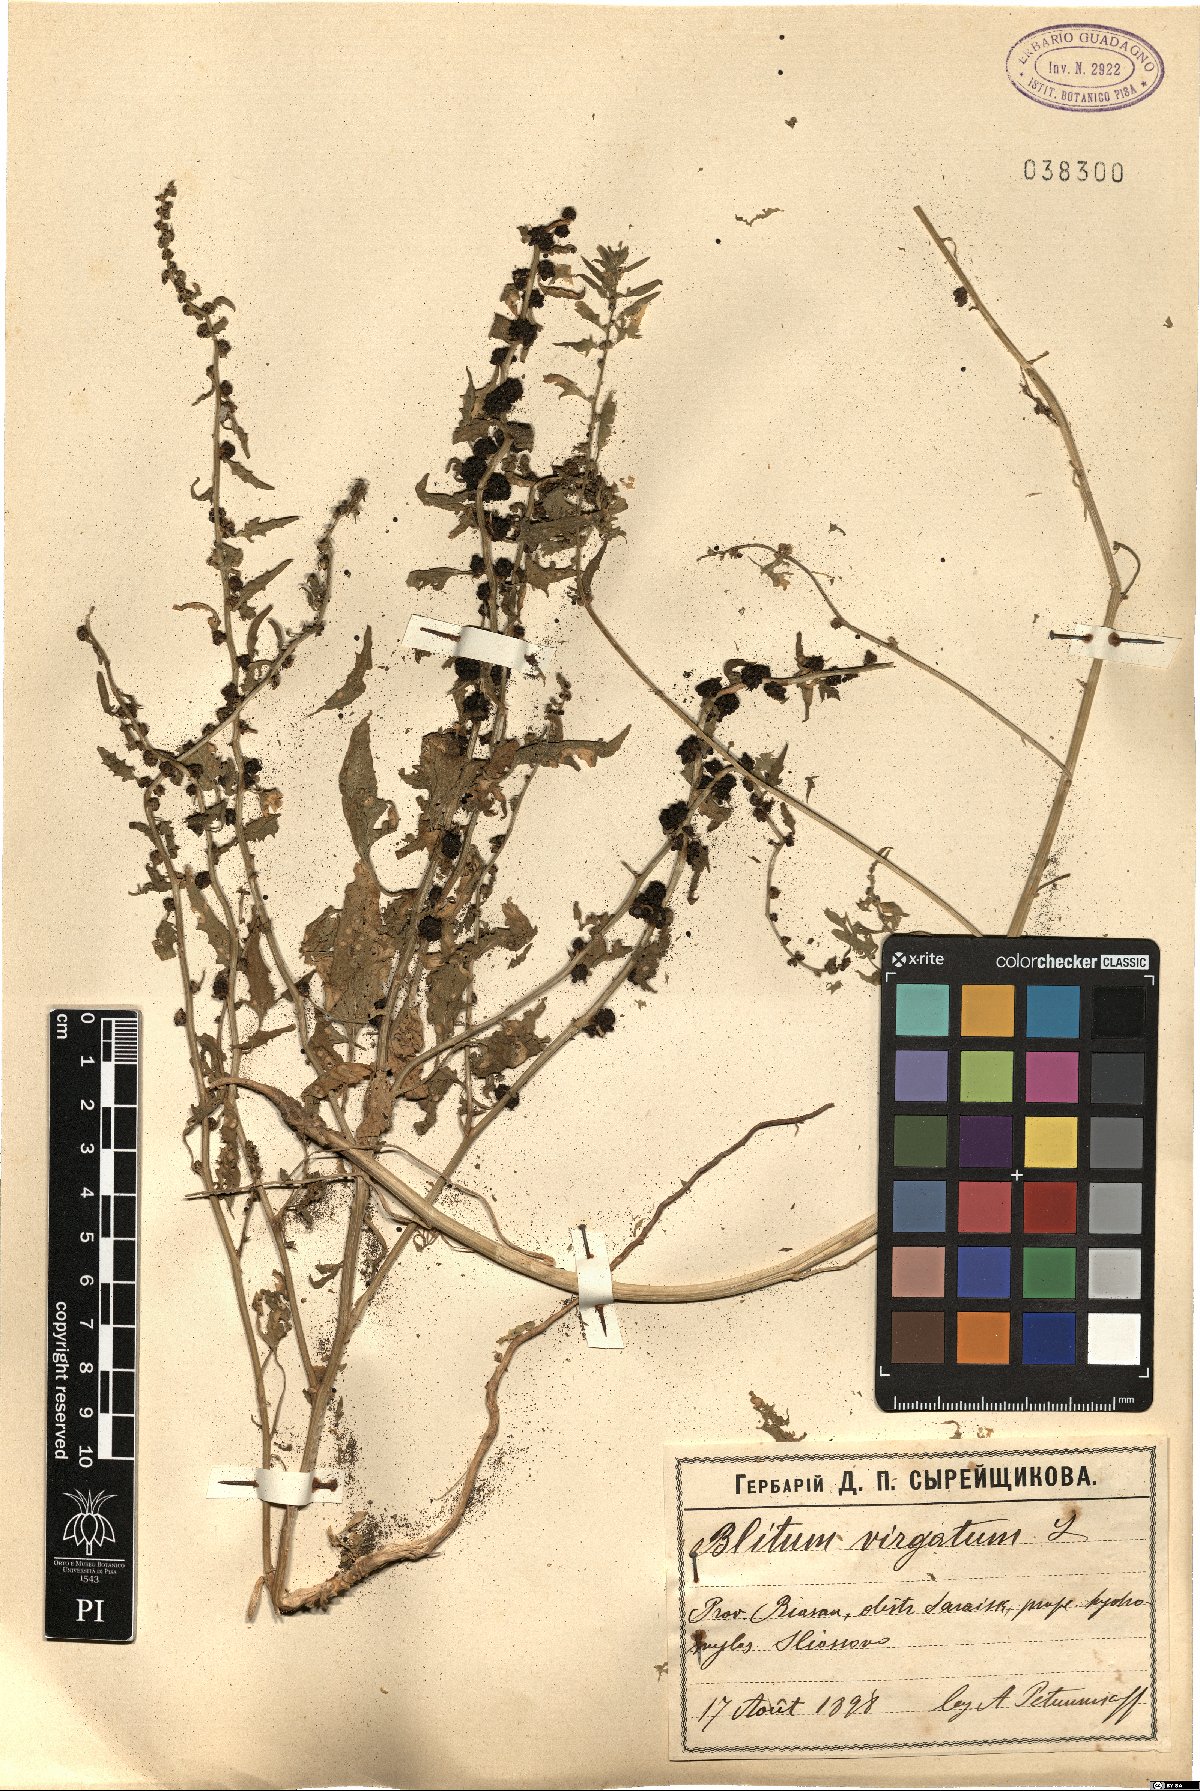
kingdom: Plantae
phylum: Tracheophyta
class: Magnoliopsida
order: Caryophyllales
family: Amaranthaceae
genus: Blitum
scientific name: Blitum virgatum
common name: Strawberry goosefoot
